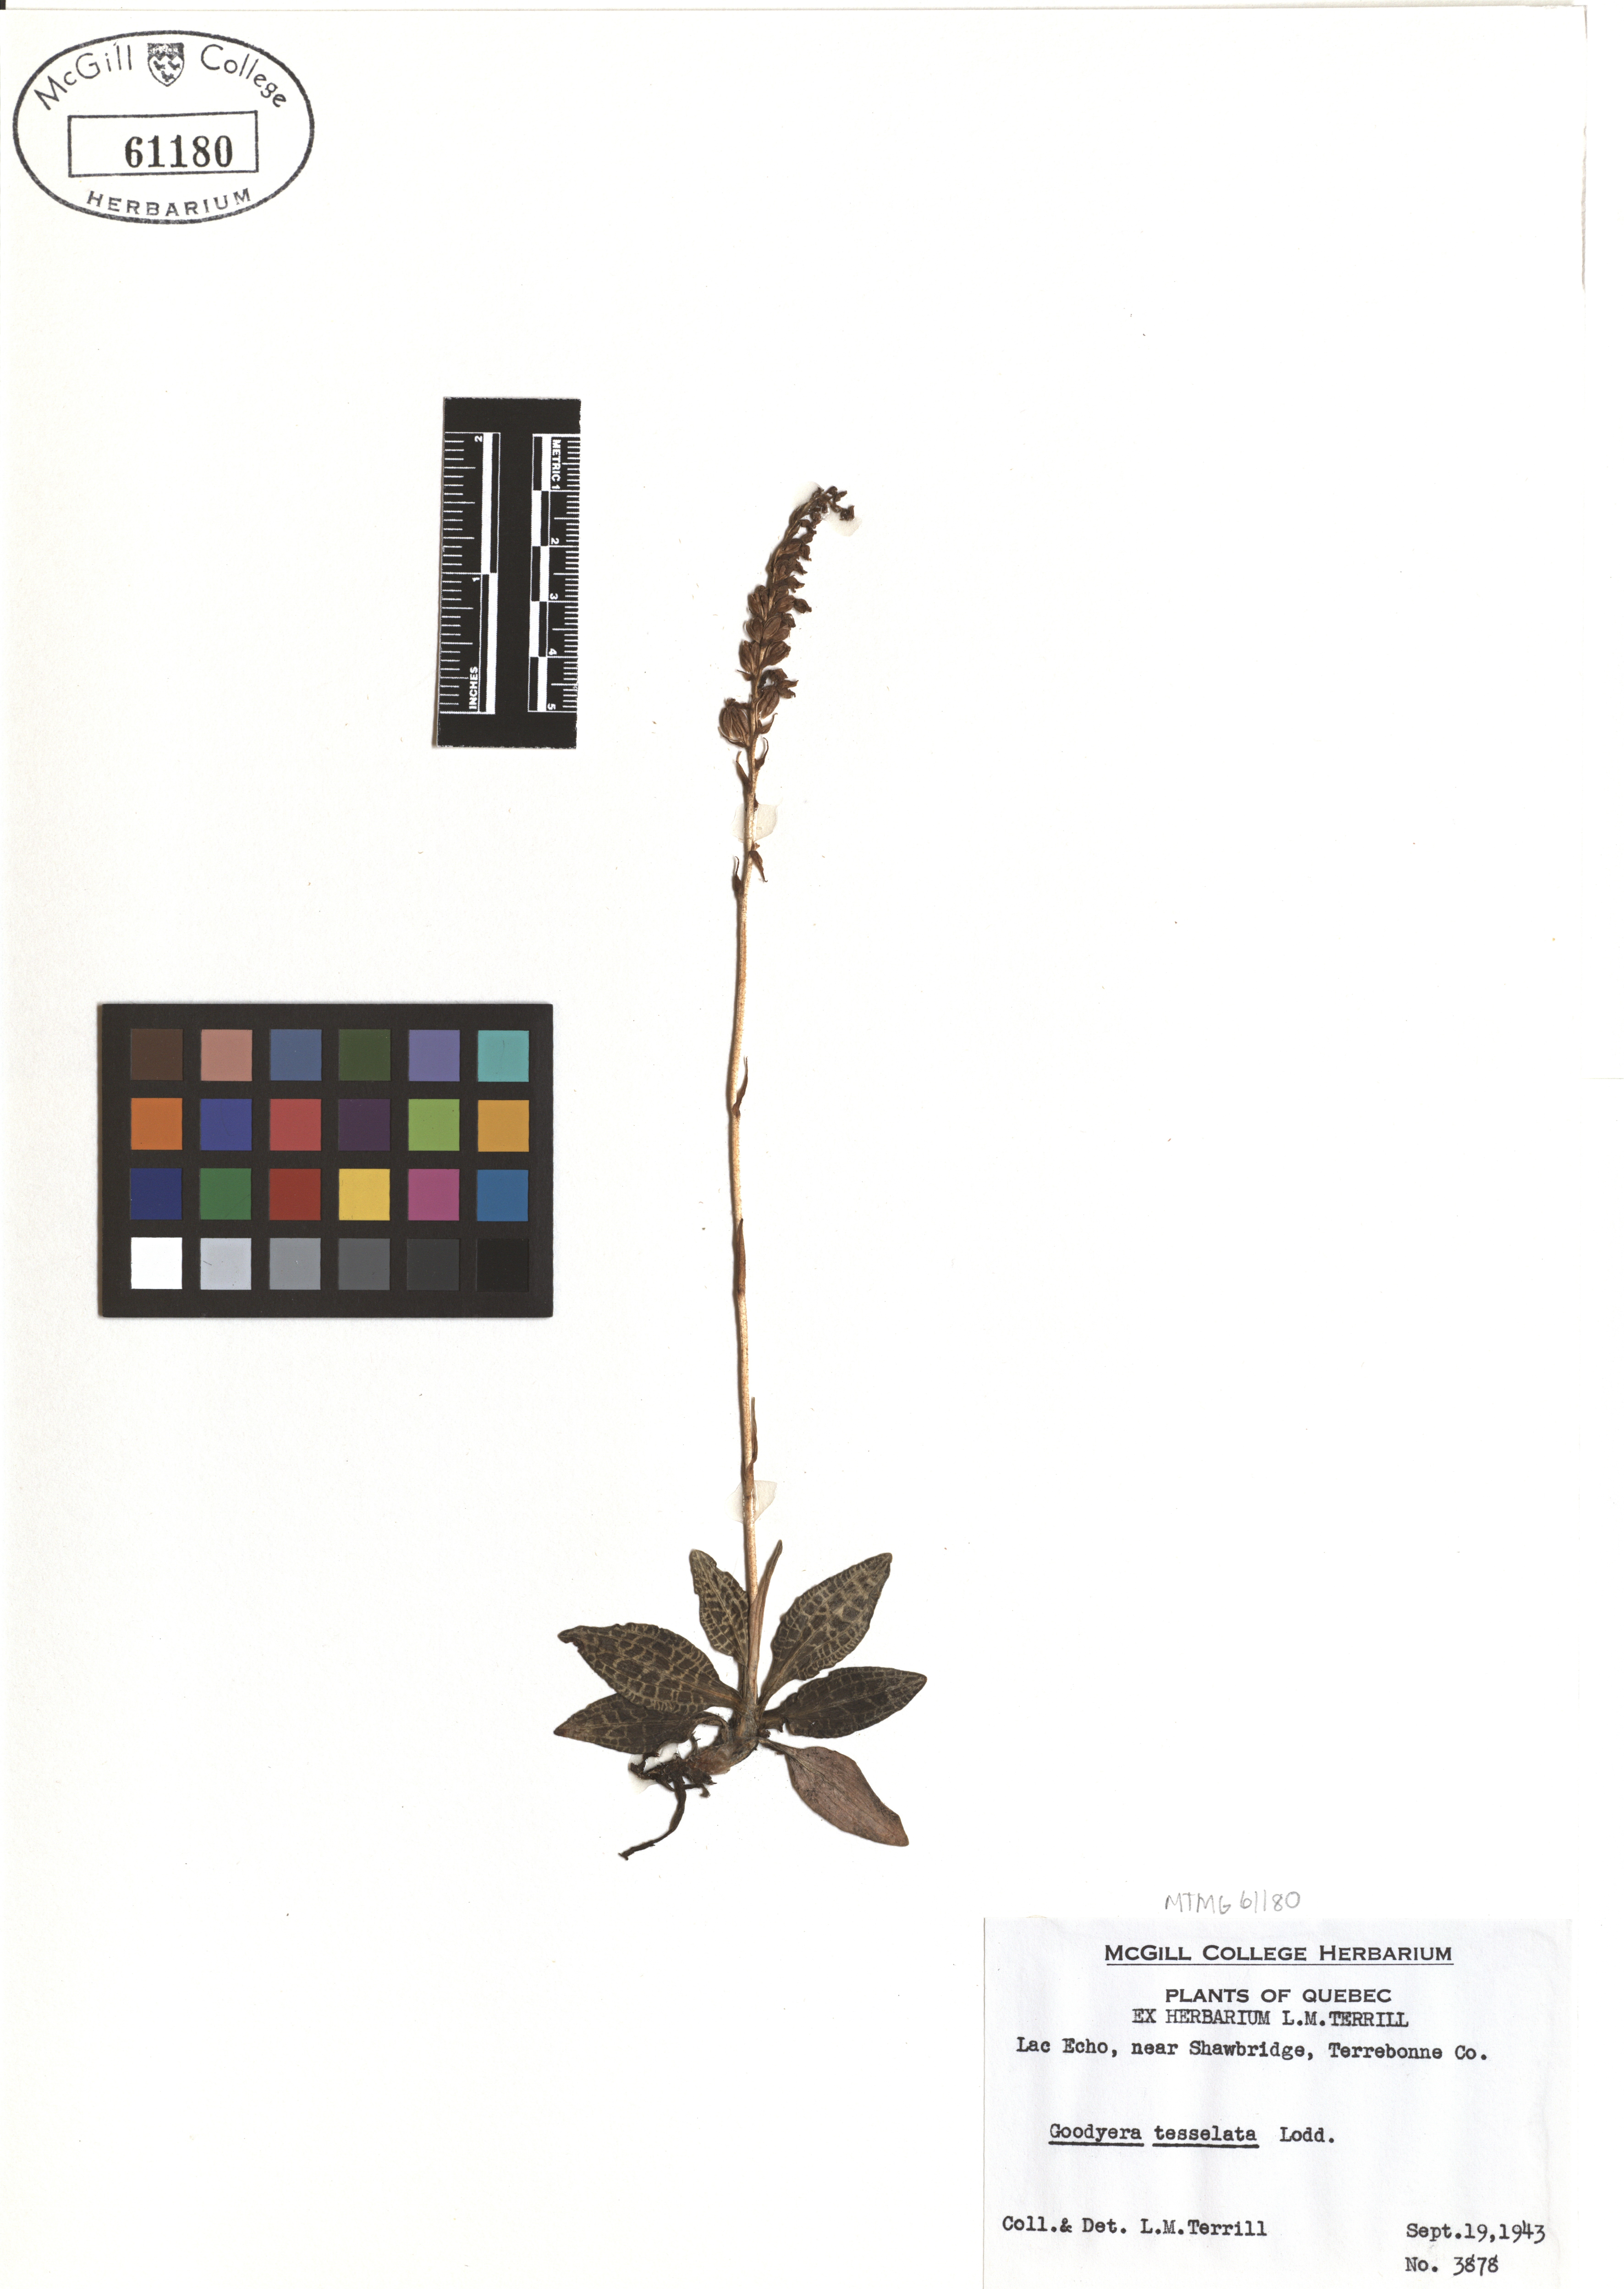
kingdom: Plantae
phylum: Tracheophyta
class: Liliopsida
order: Asparagales
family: Orchidaceae
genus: Goodyera
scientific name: Goodyera tesselata
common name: Checkered rattlesnake-plantain
